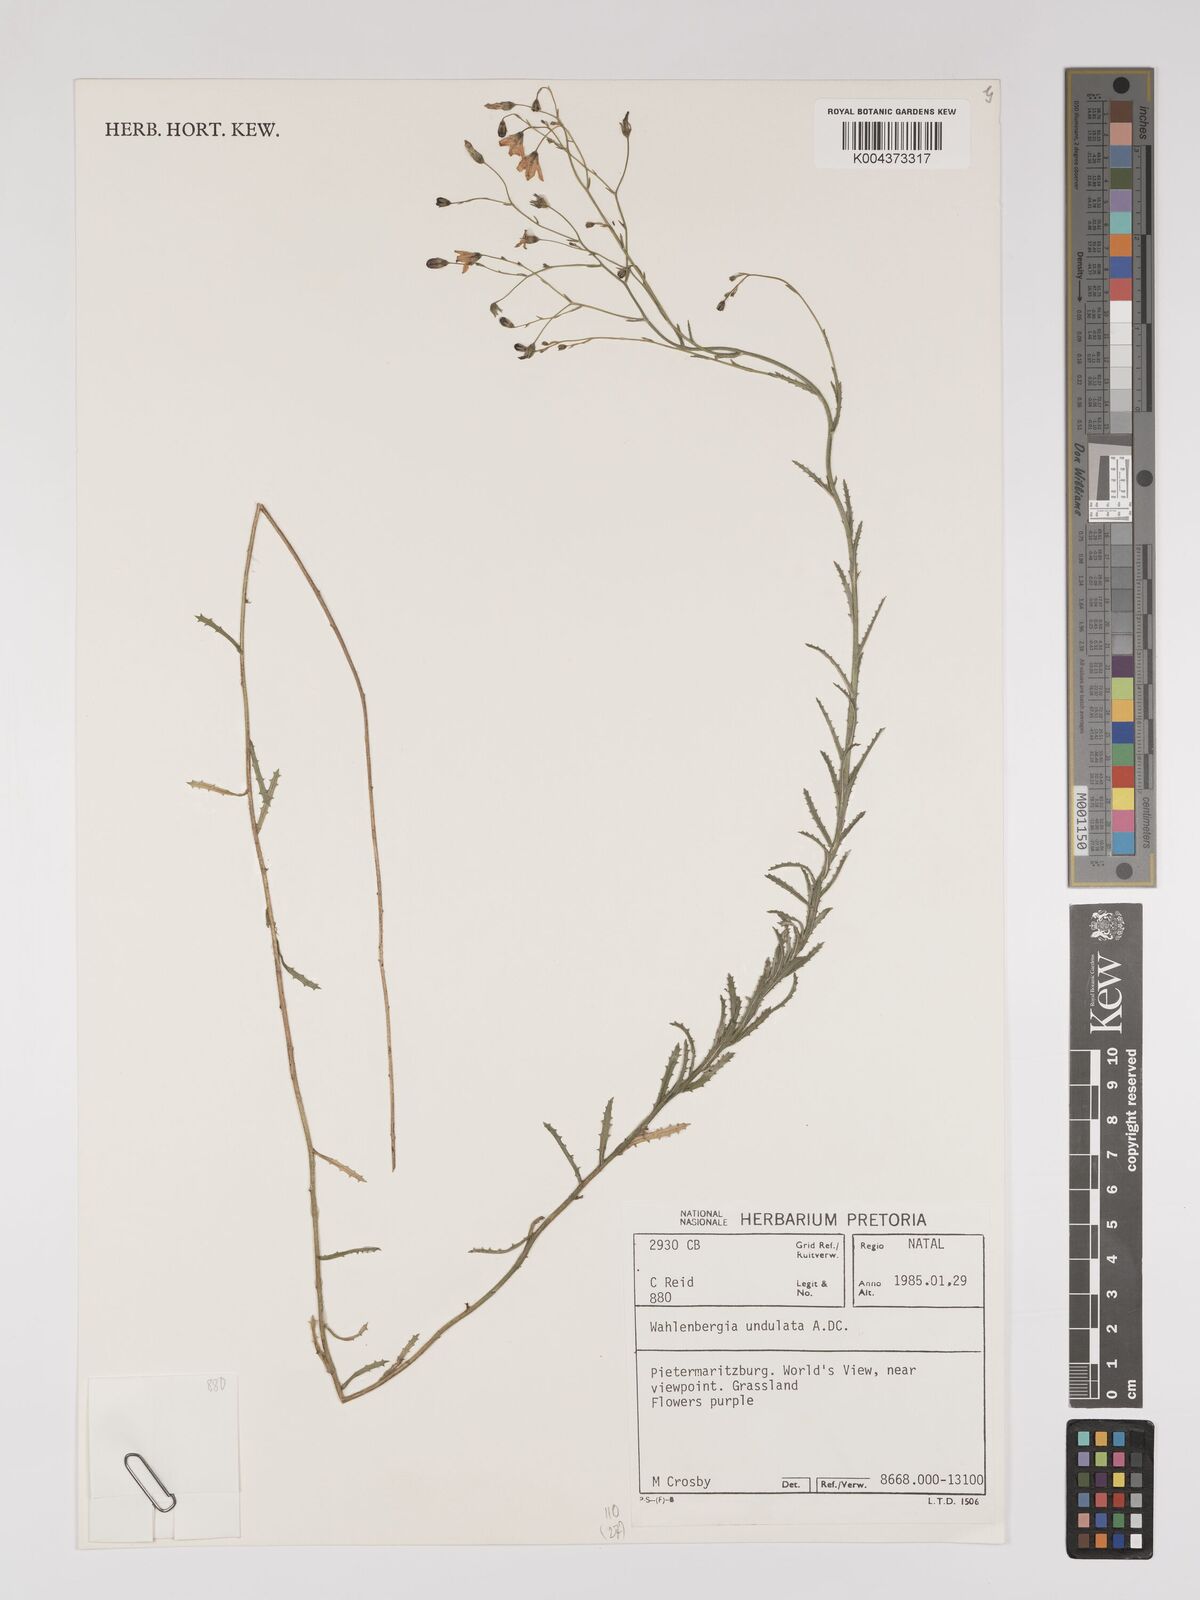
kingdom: Plantae
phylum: Tracheophyta
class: Magnoliopsida
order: Asterales
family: Campanulaceae
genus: Wahlenbergia
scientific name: Wahlenbergia undulata
